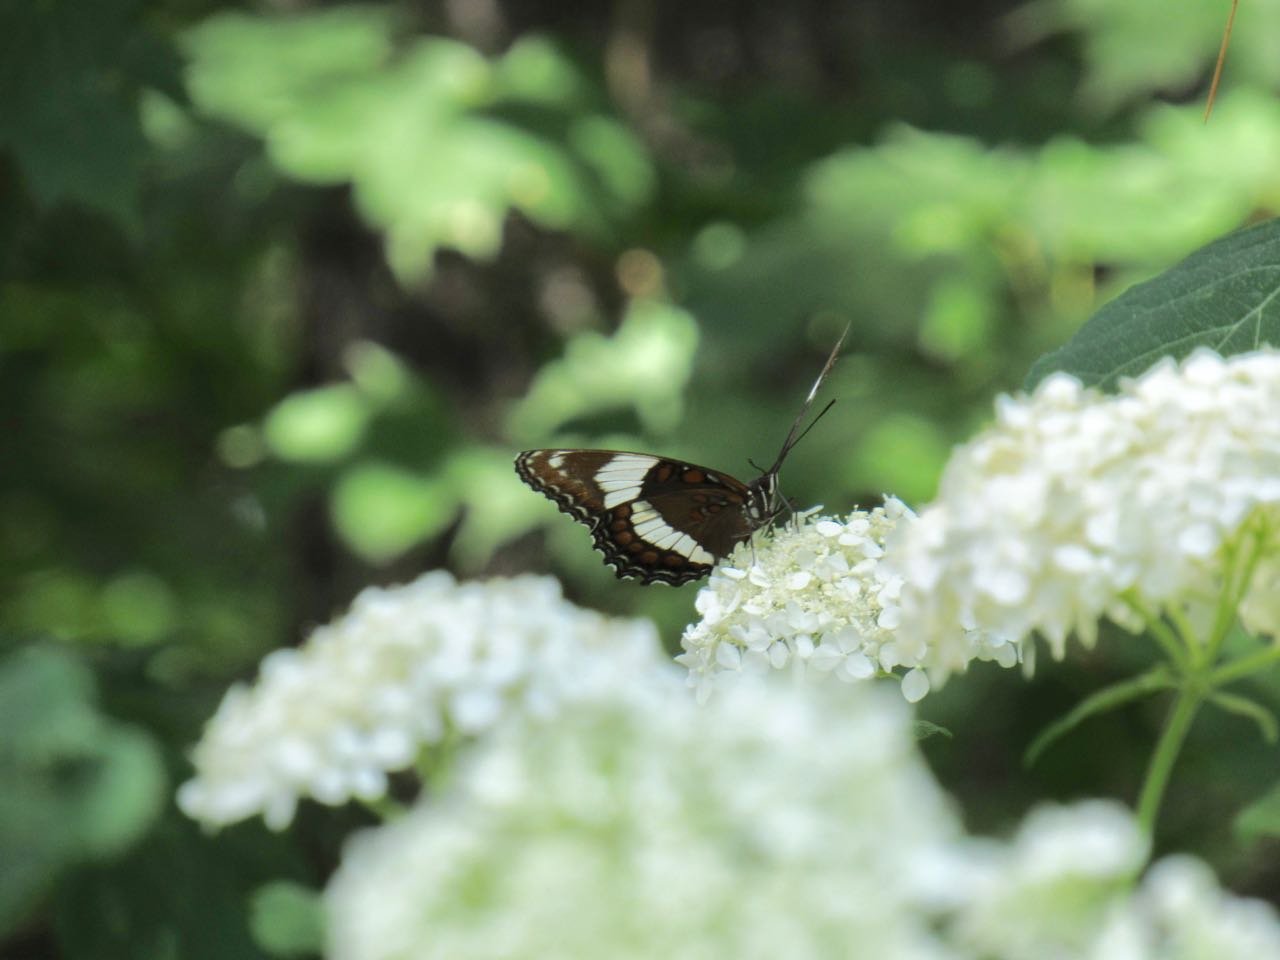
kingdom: Animalia
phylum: Arthropoda
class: Insecta
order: Lepidoptera
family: Nymphalidae
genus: Limenitis
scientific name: Limenitis arthemis
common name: Red-spotted Admiral
